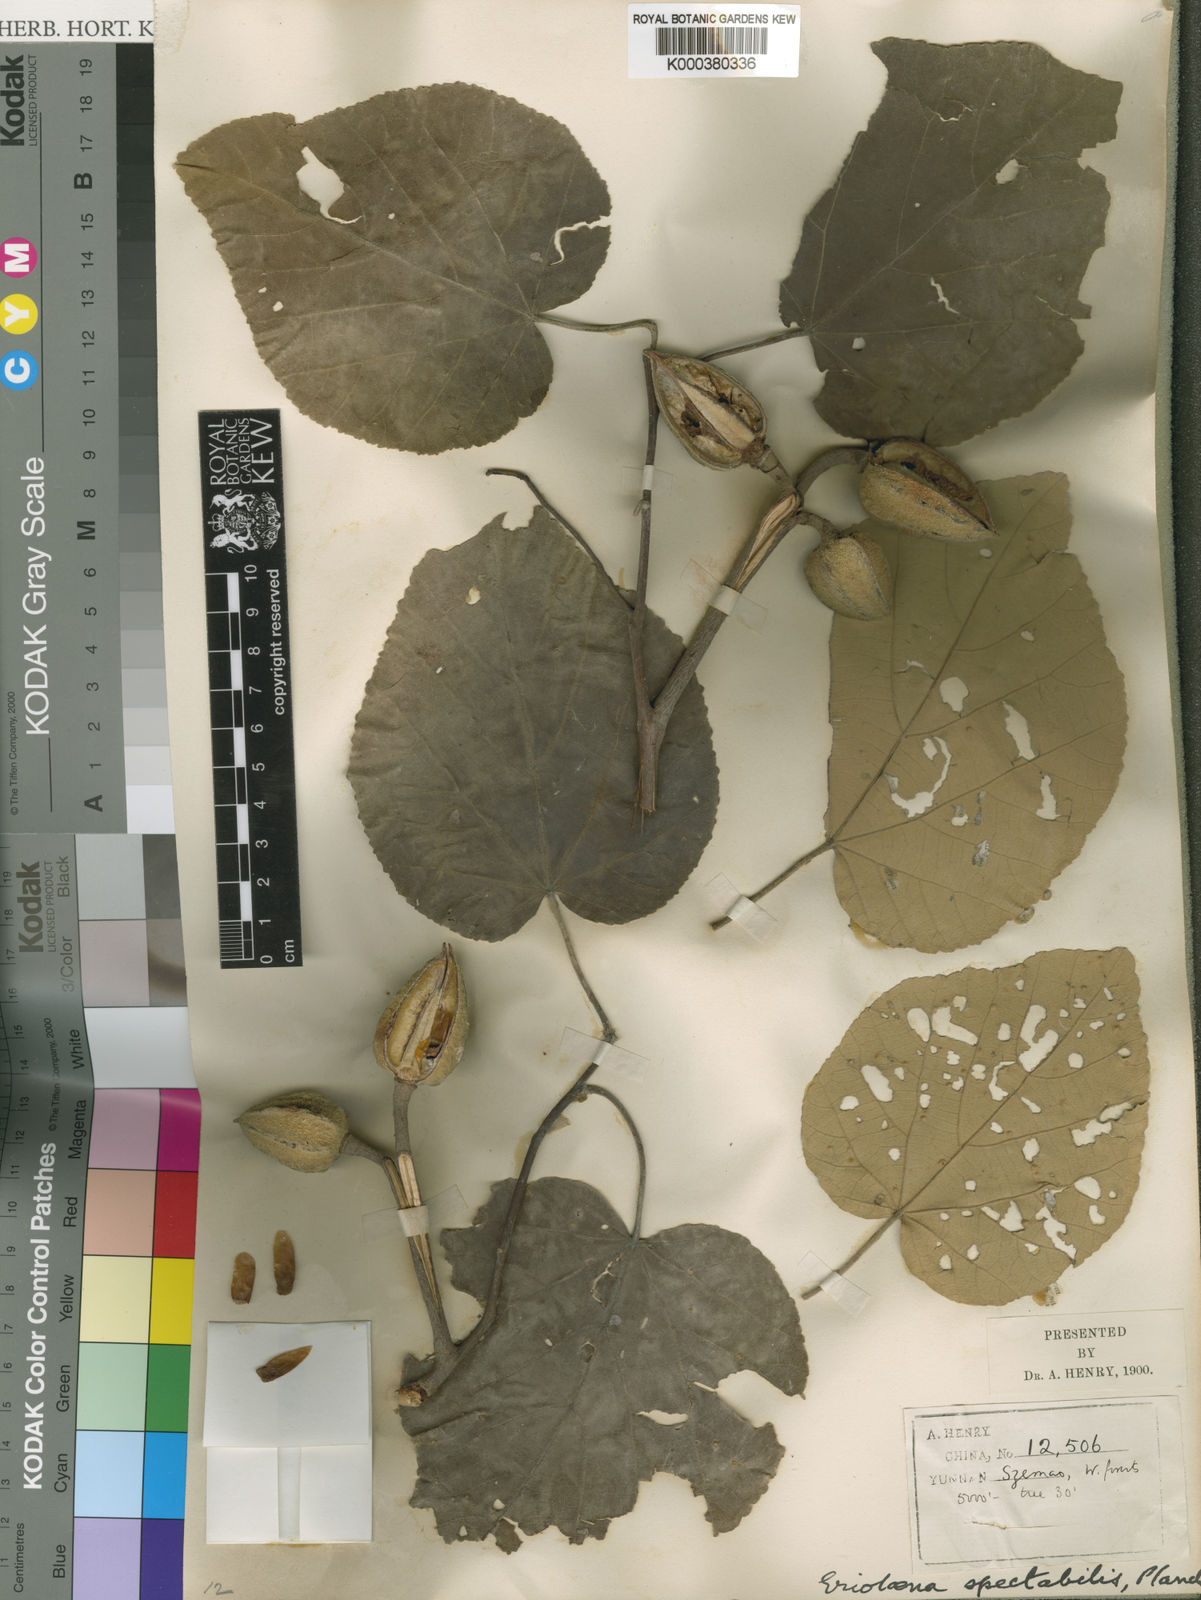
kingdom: Plantae
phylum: Tracheophyta
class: Magnoliopsida
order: Malvales
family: Malvaceae
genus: Eriolaena
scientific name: Eriolaena
